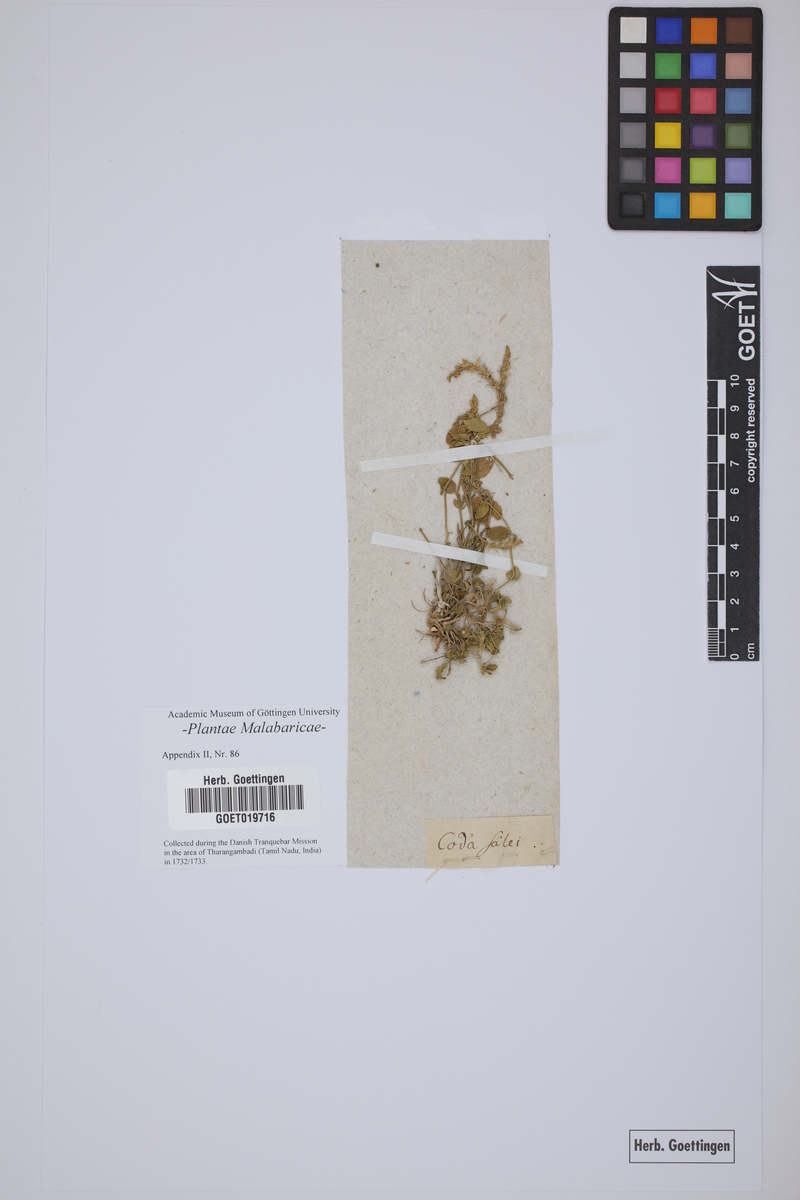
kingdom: Plantae
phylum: Tracheophyta
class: Magnoliopsida
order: Lamiales
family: Acanthaceae
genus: Dicliptera
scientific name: Dicliptera tomentosa
